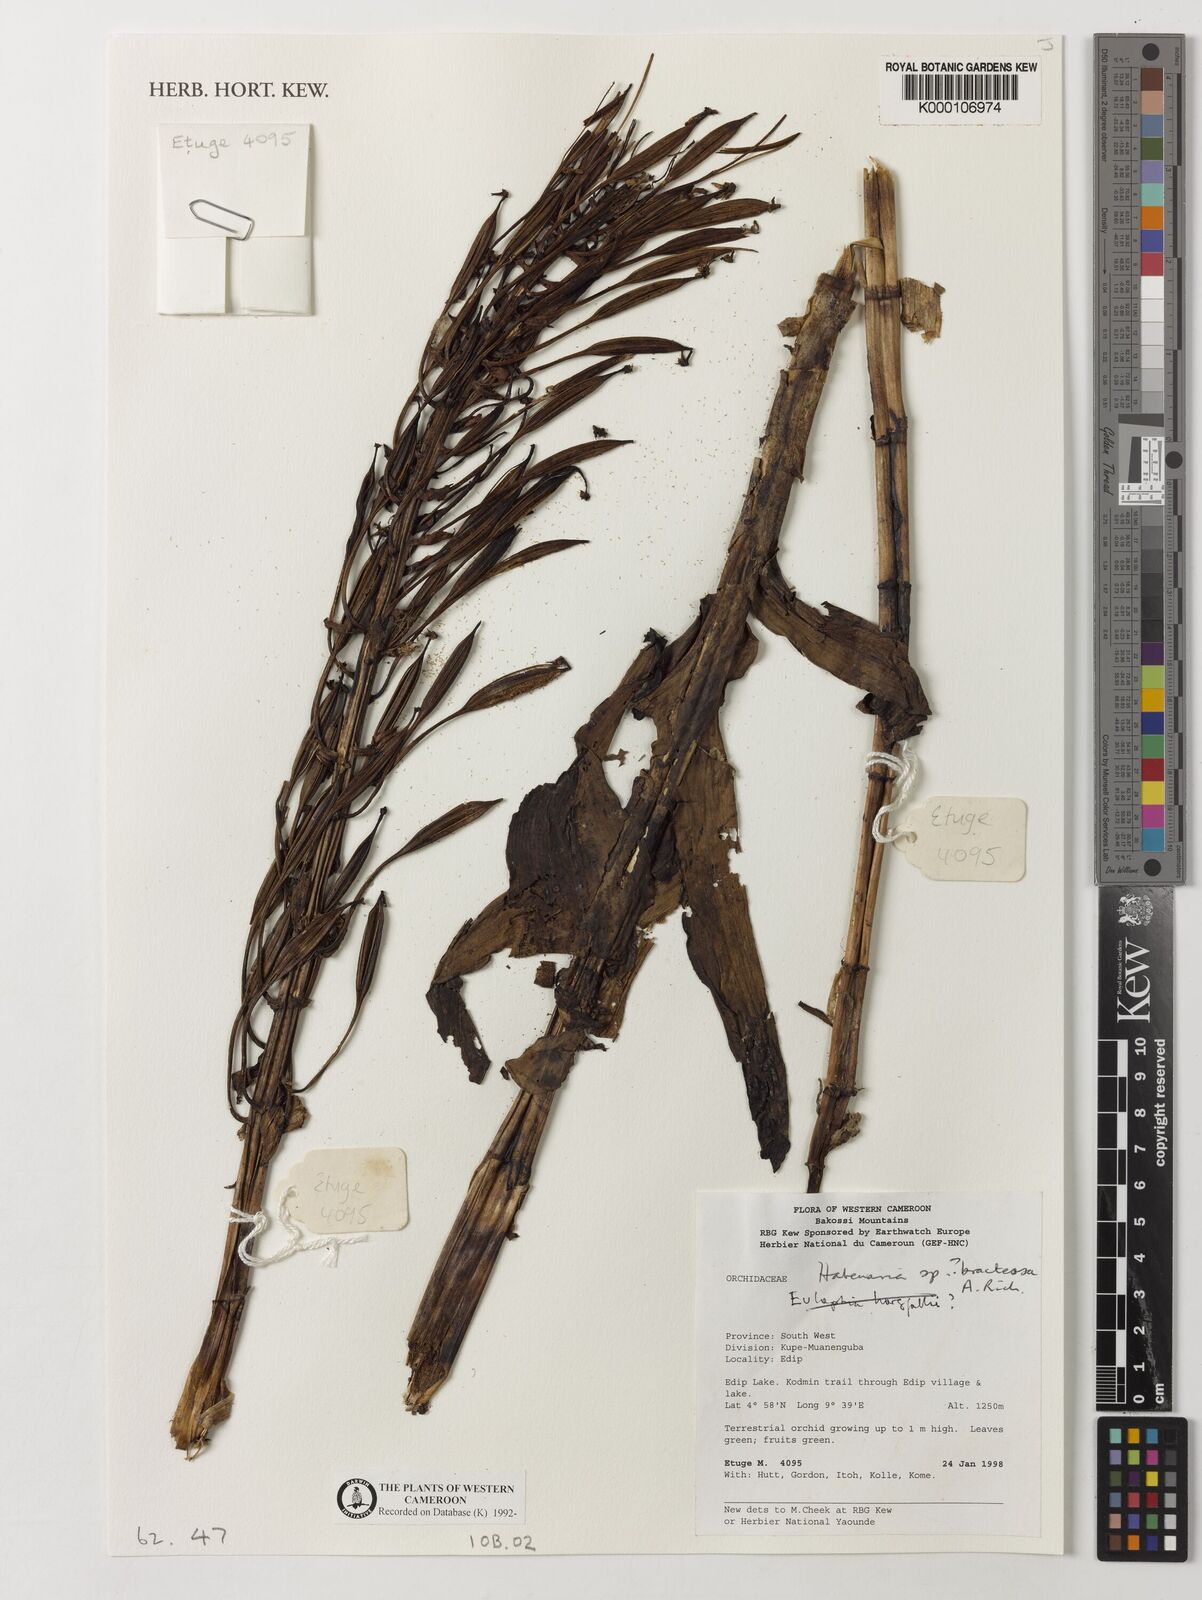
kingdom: Plantae
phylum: Tracheophyta
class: Liliopsida
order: Asparagales
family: Orchidaceae
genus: Habenaria
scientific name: Habenaria bracteosa
